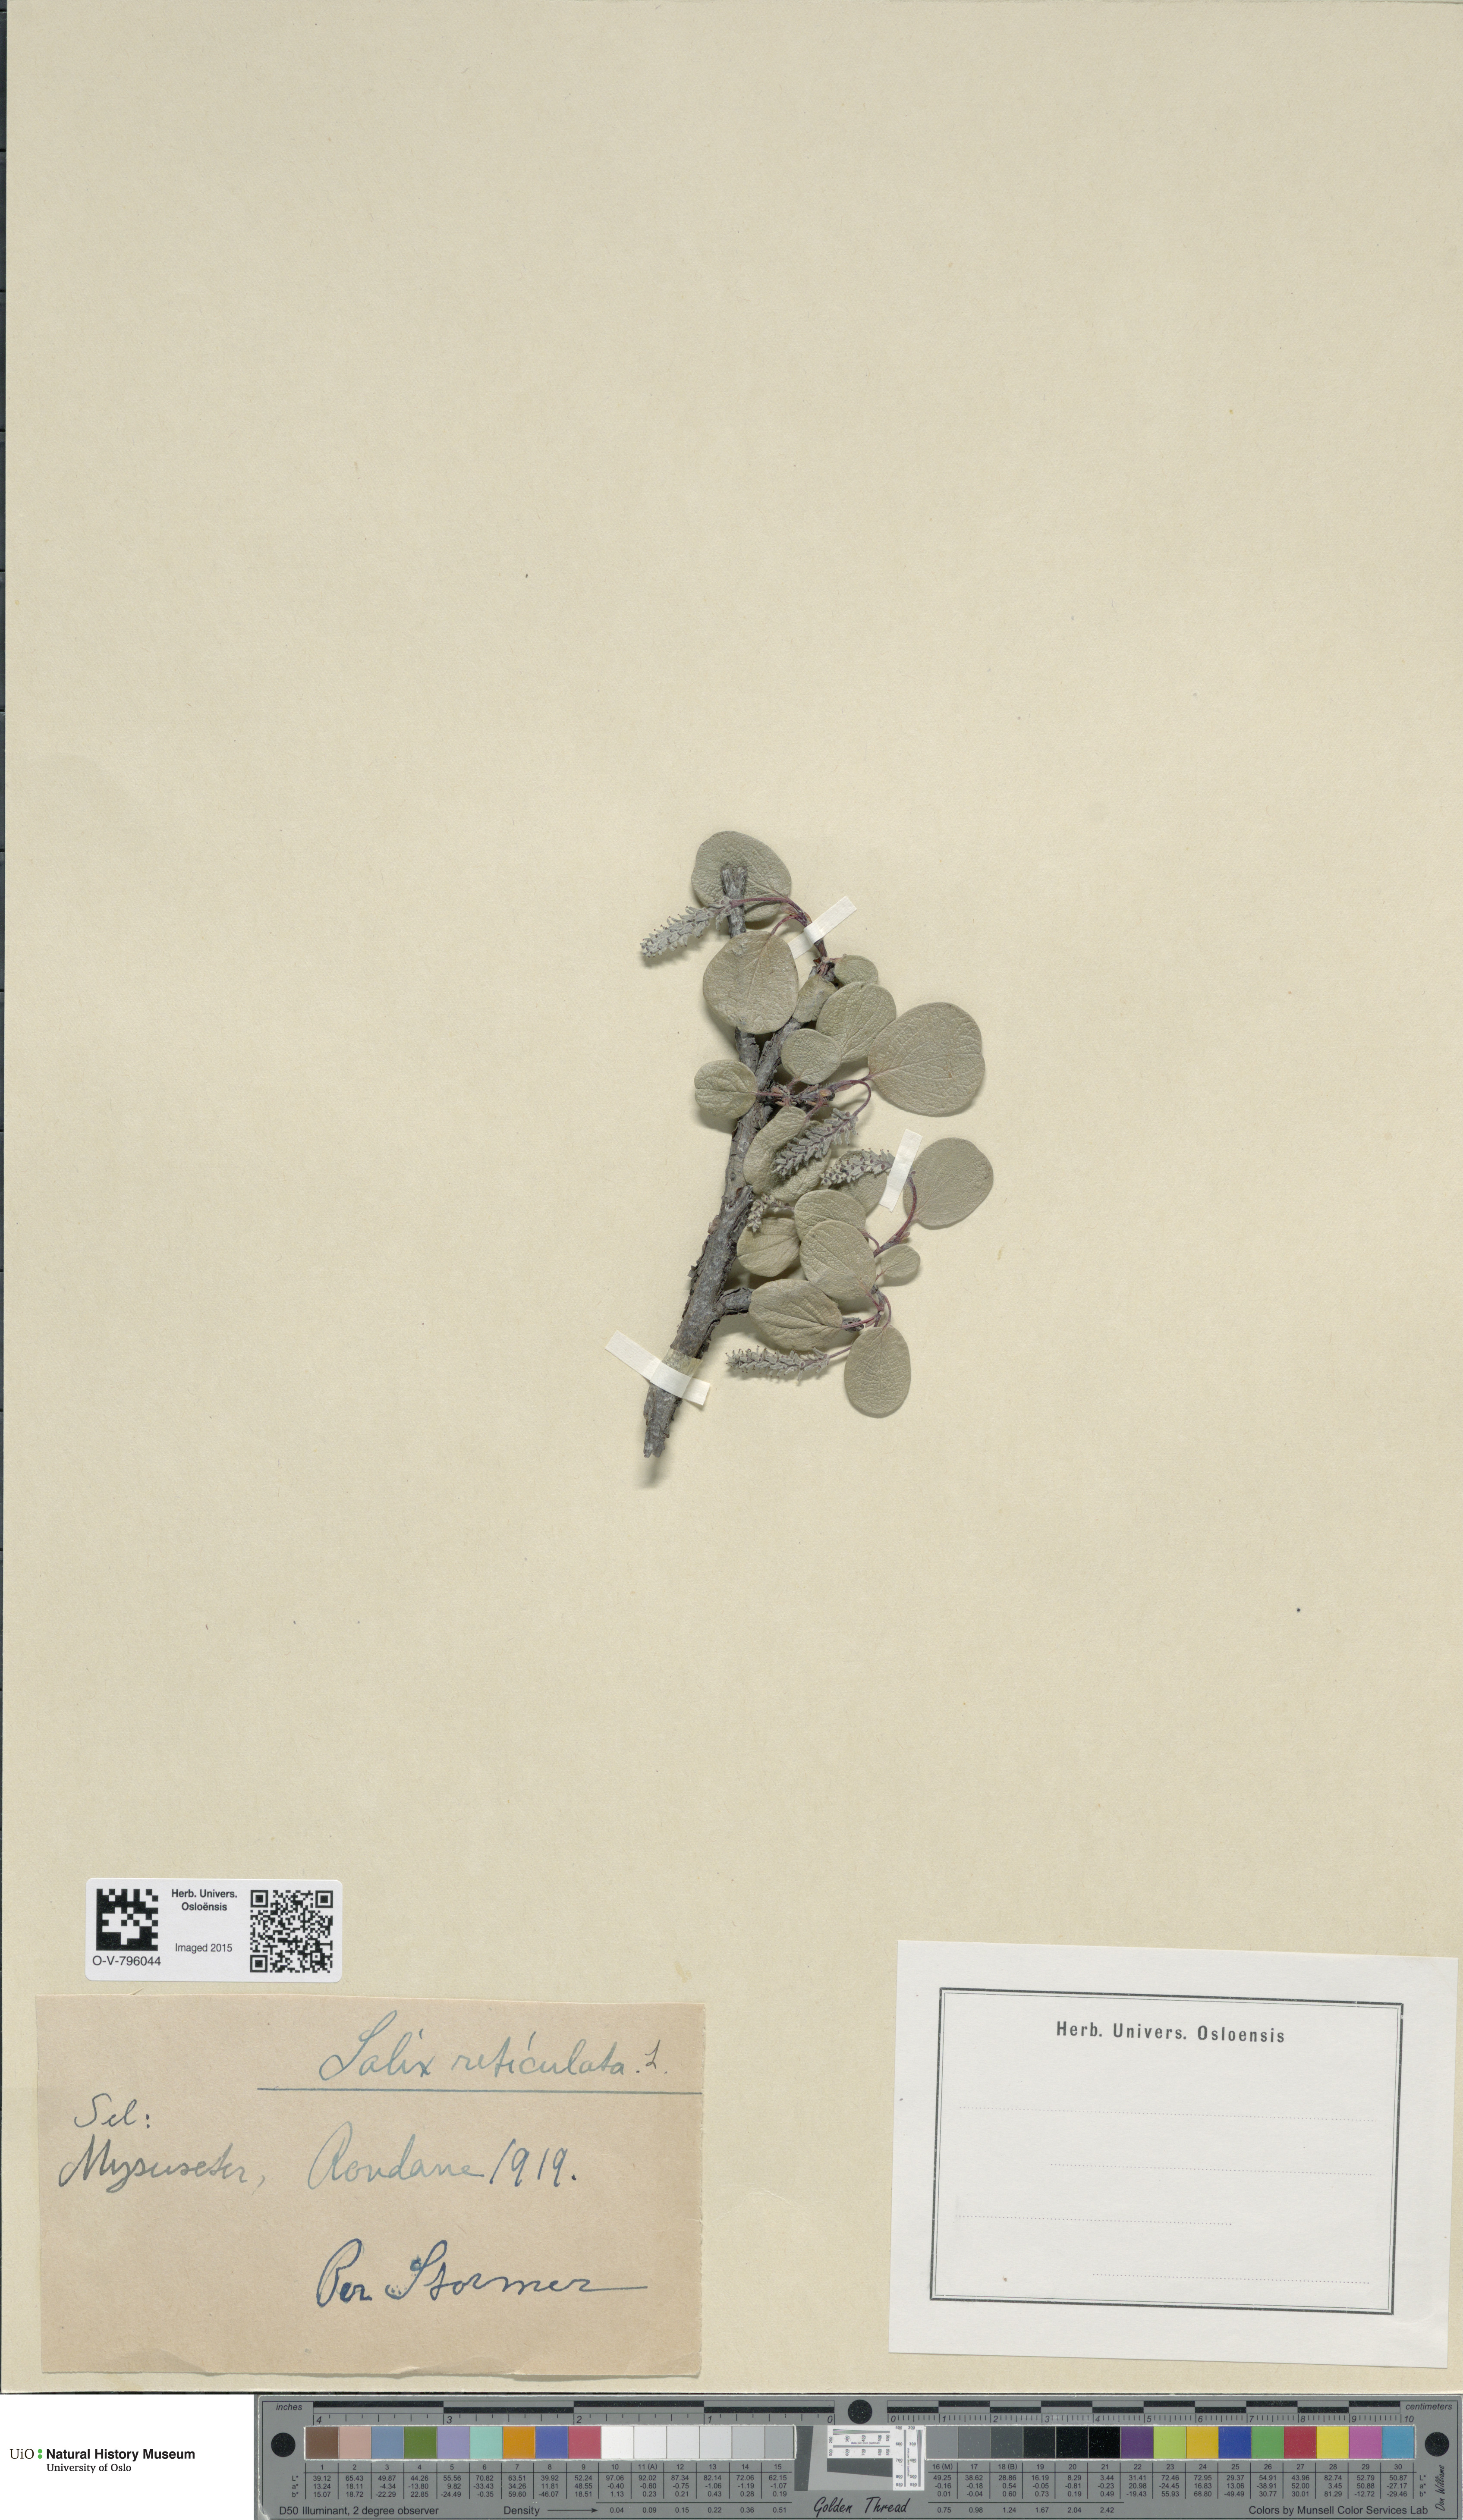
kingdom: Plantae
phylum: Tracheophyta
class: Magnoliopsida
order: Malpighiales
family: Salicaceae
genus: Salix
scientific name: Salix reticulata
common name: Net-leaved willow
